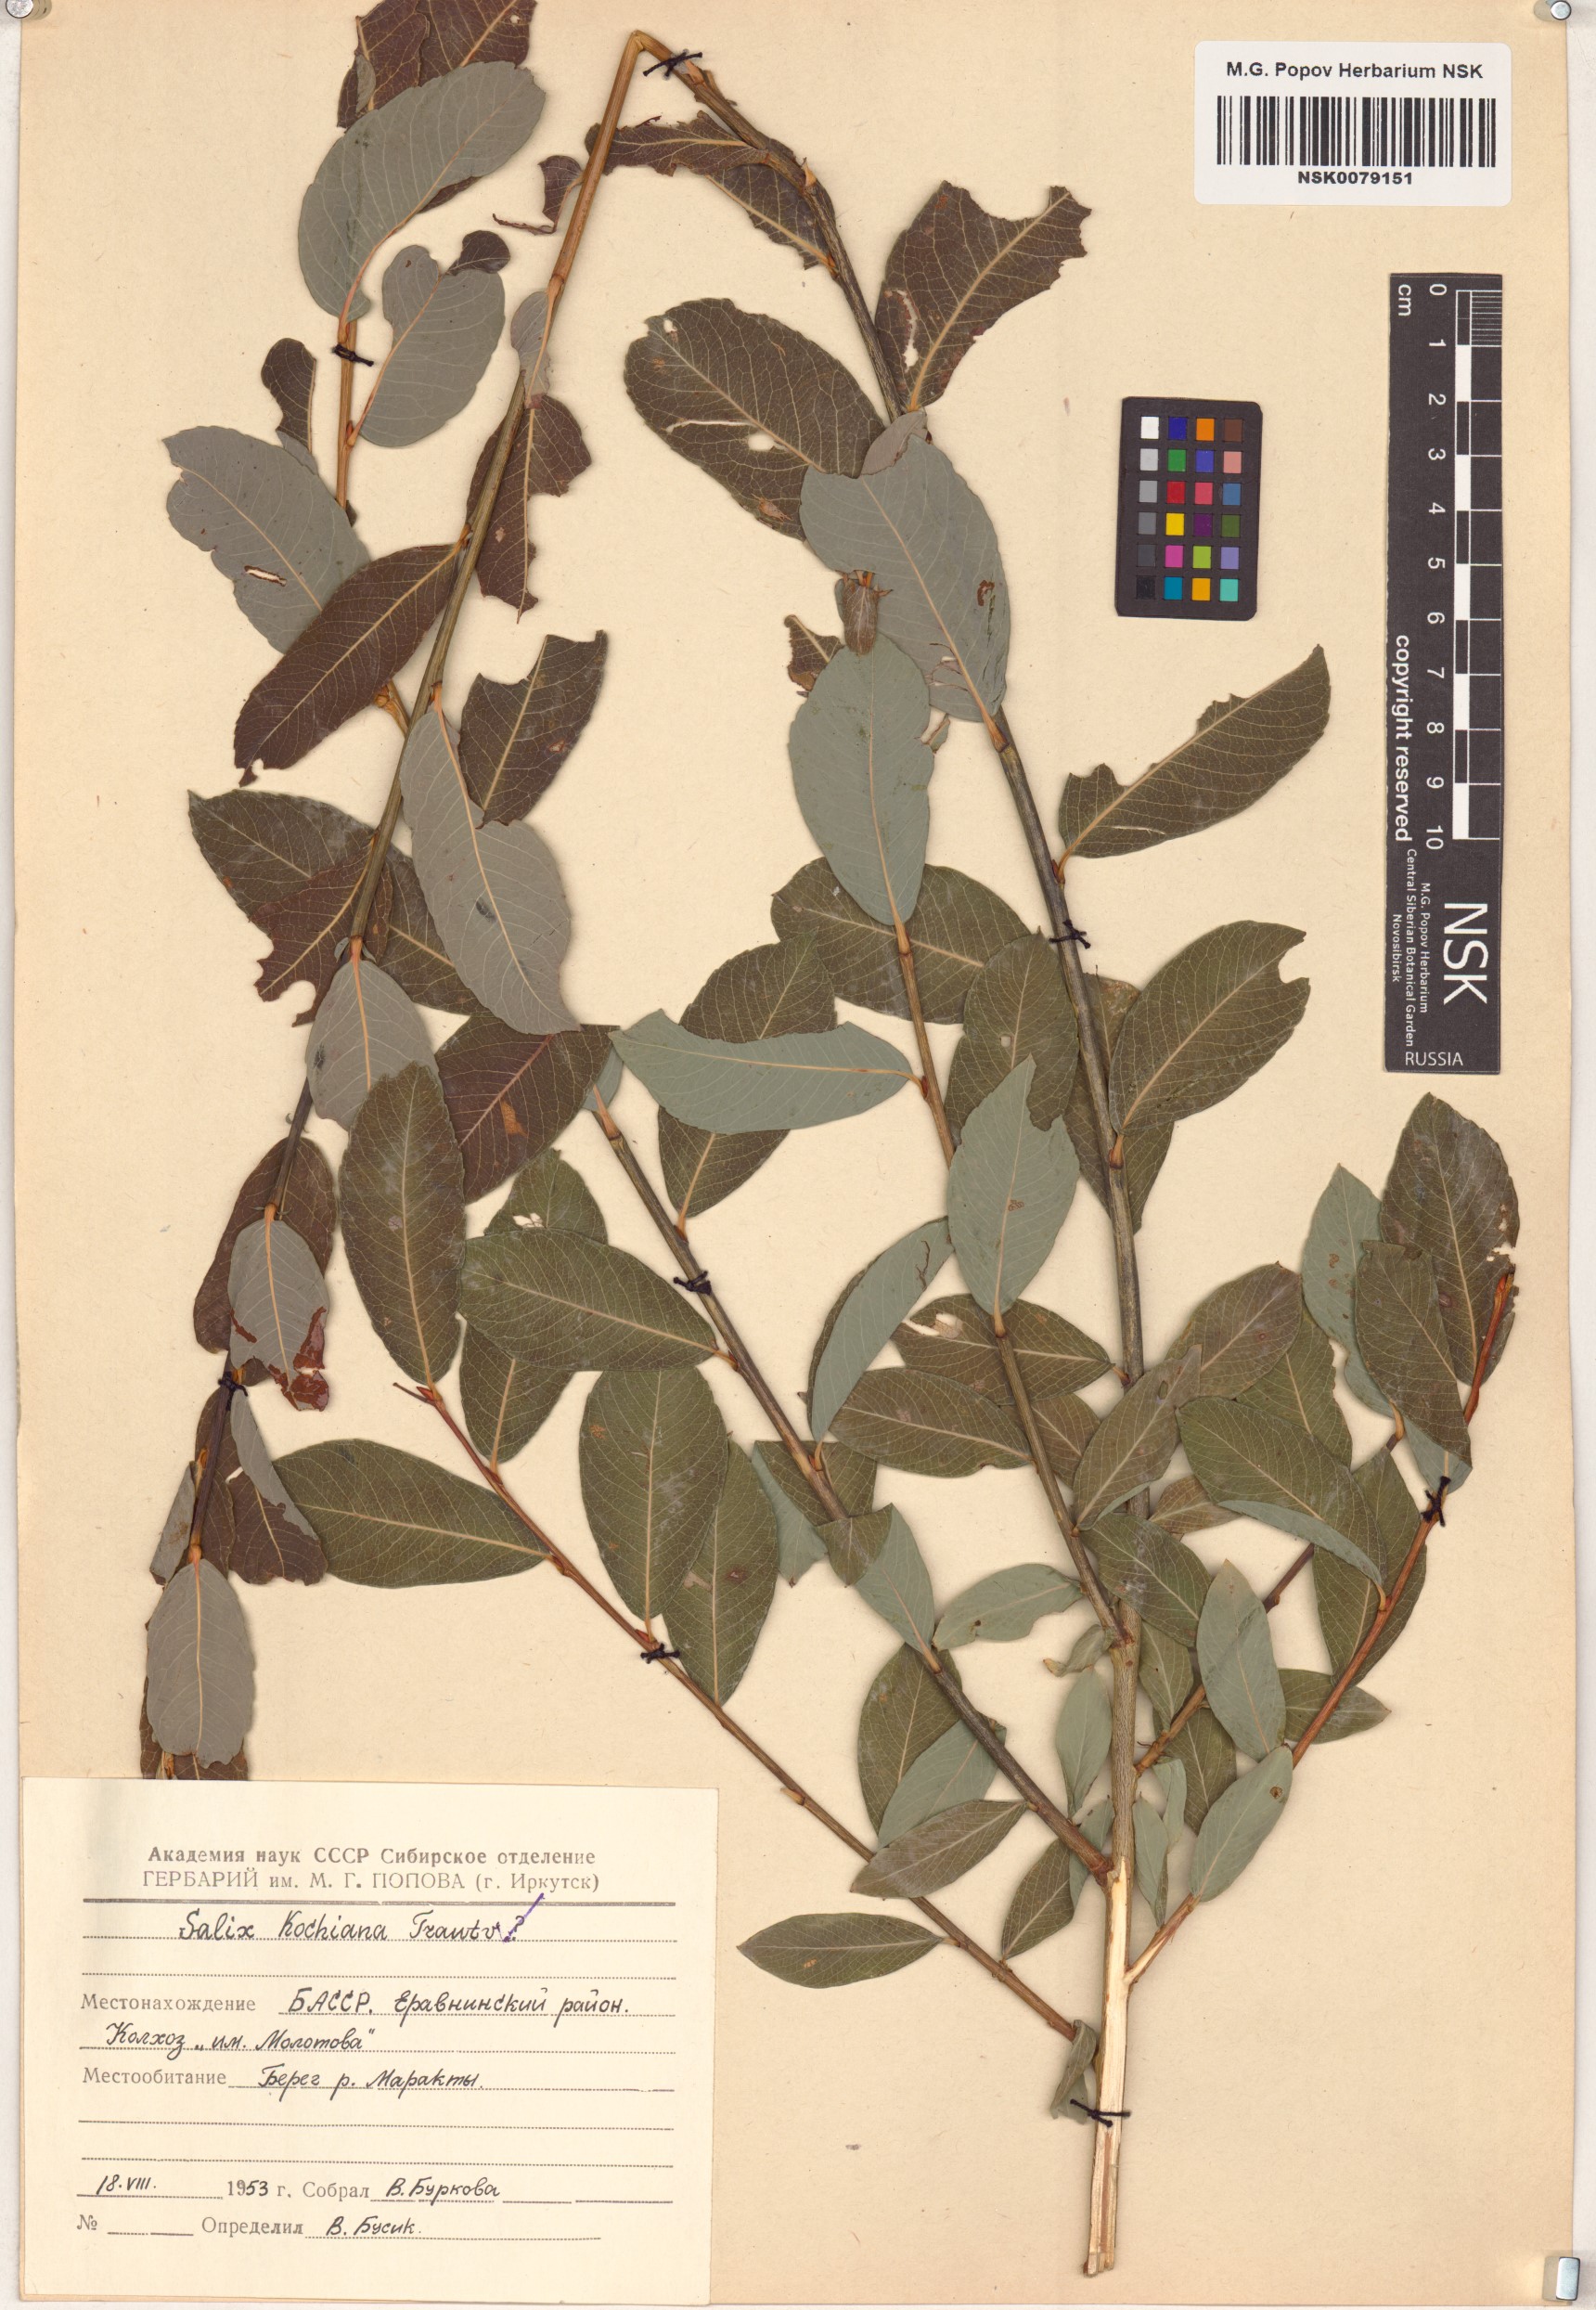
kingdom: Plantae
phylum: Tracheophyta
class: Magnoliopsida
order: Malpighiales
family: Salicaceae
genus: Salix
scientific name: Salix kochiana
